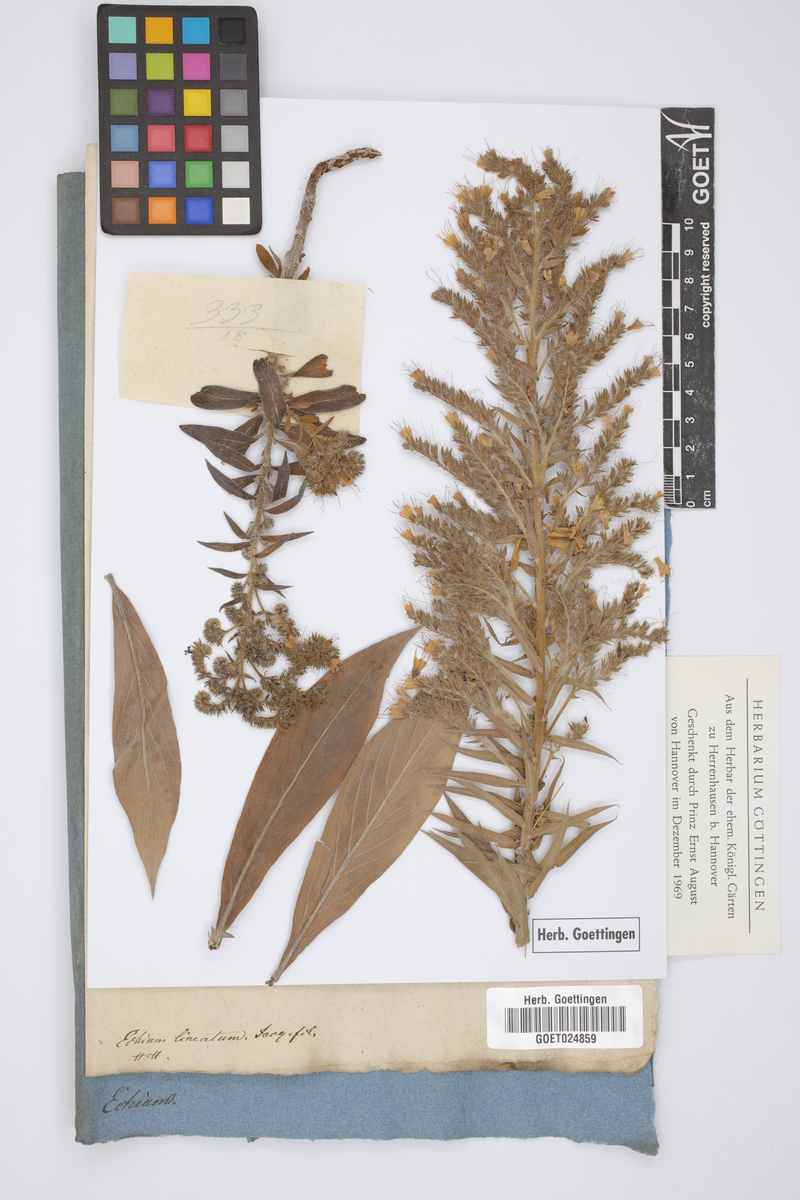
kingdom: Plantae
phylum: Tracheophyta
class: Magnoliopsida
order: Boraginales
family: Boraginaceae
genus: Echium
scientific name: Echium strictum
